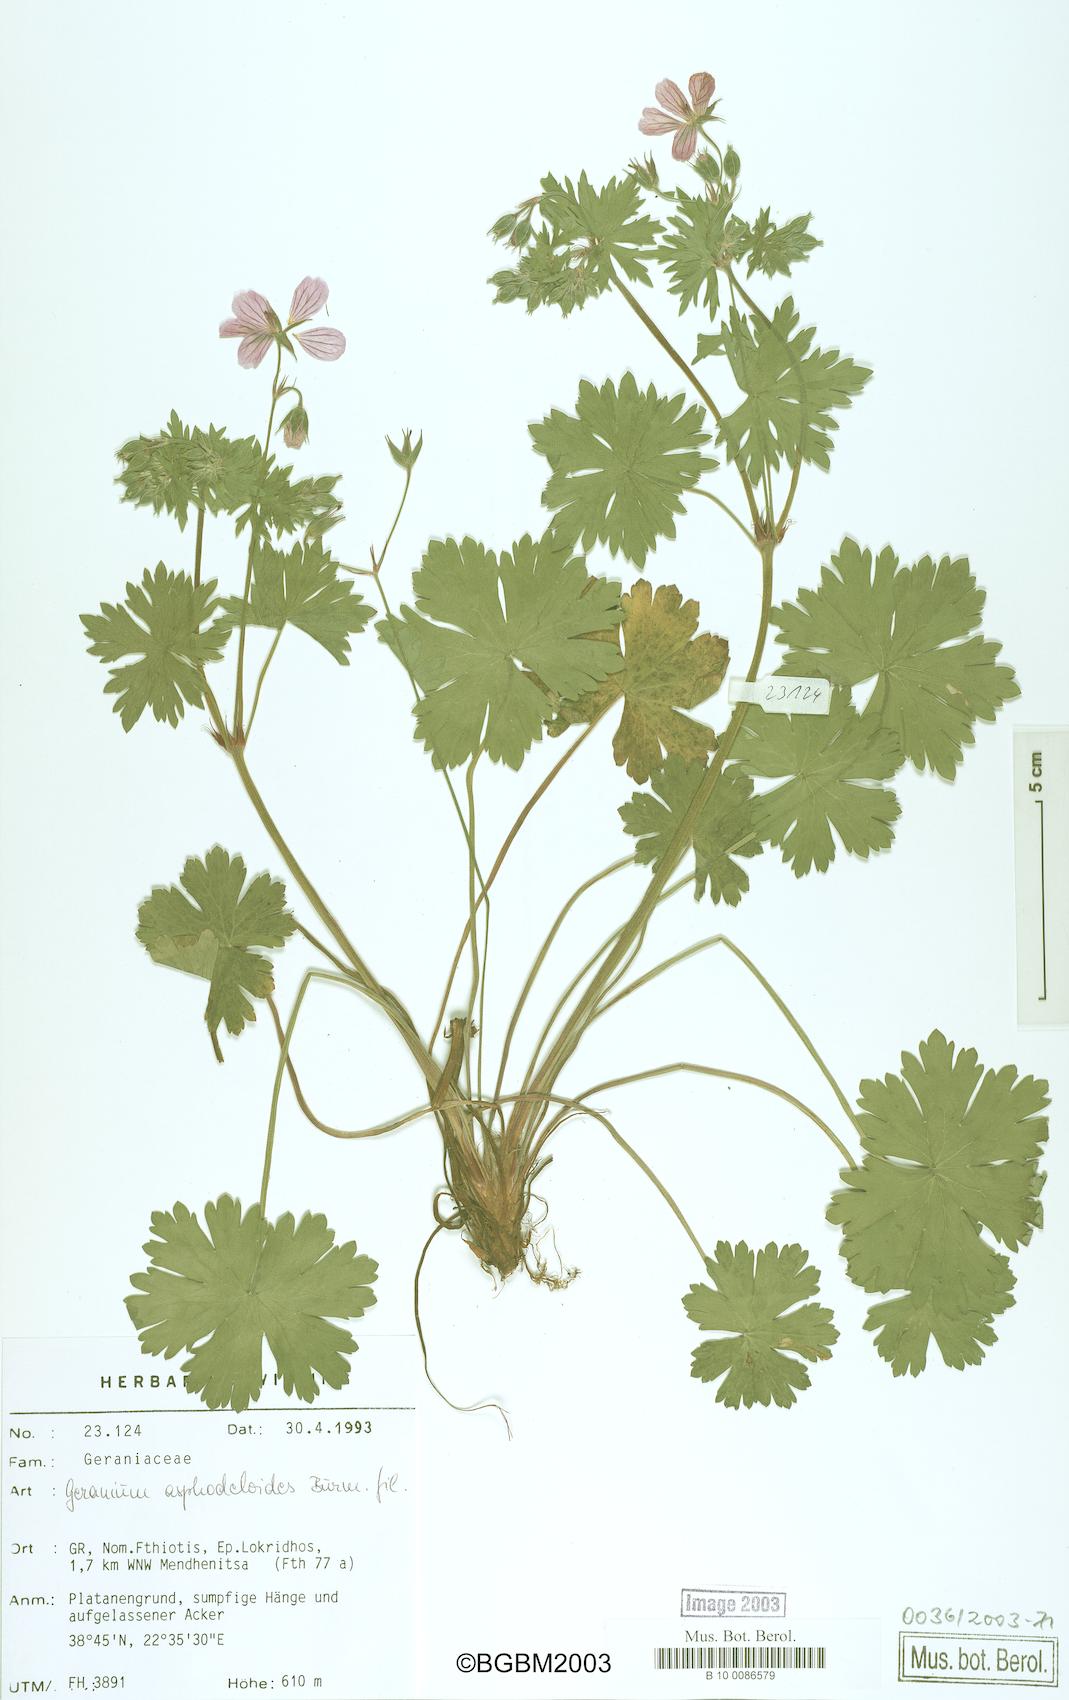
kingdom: Plantae
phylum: Tracheophyta
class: Magnoliopsida
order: Geraniales
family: Geraniaceae
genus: Geranium
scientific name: Geranium asphodeloides
